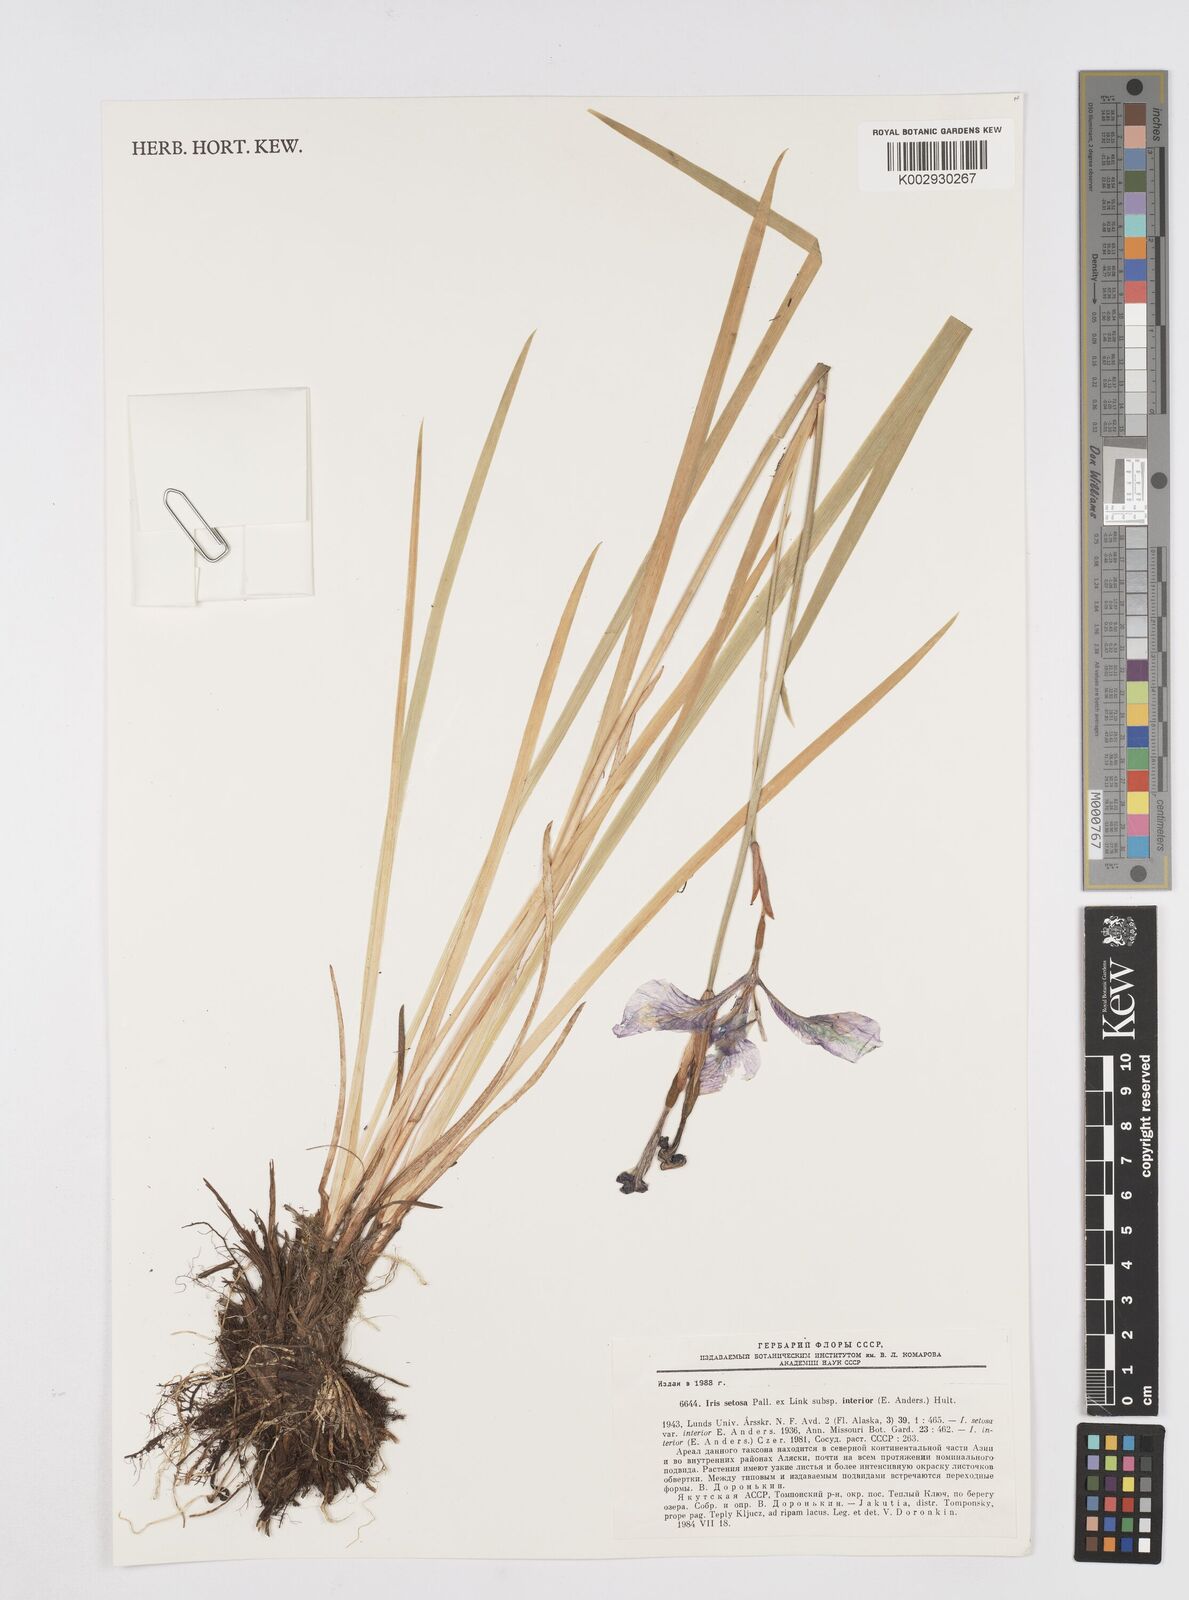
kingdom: Plantae
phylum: Tracheophyta
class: Liliopsida
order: Asparagales
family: Iridaceae
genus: Iris
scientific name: Iris setosa
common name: Arctic blue flag
